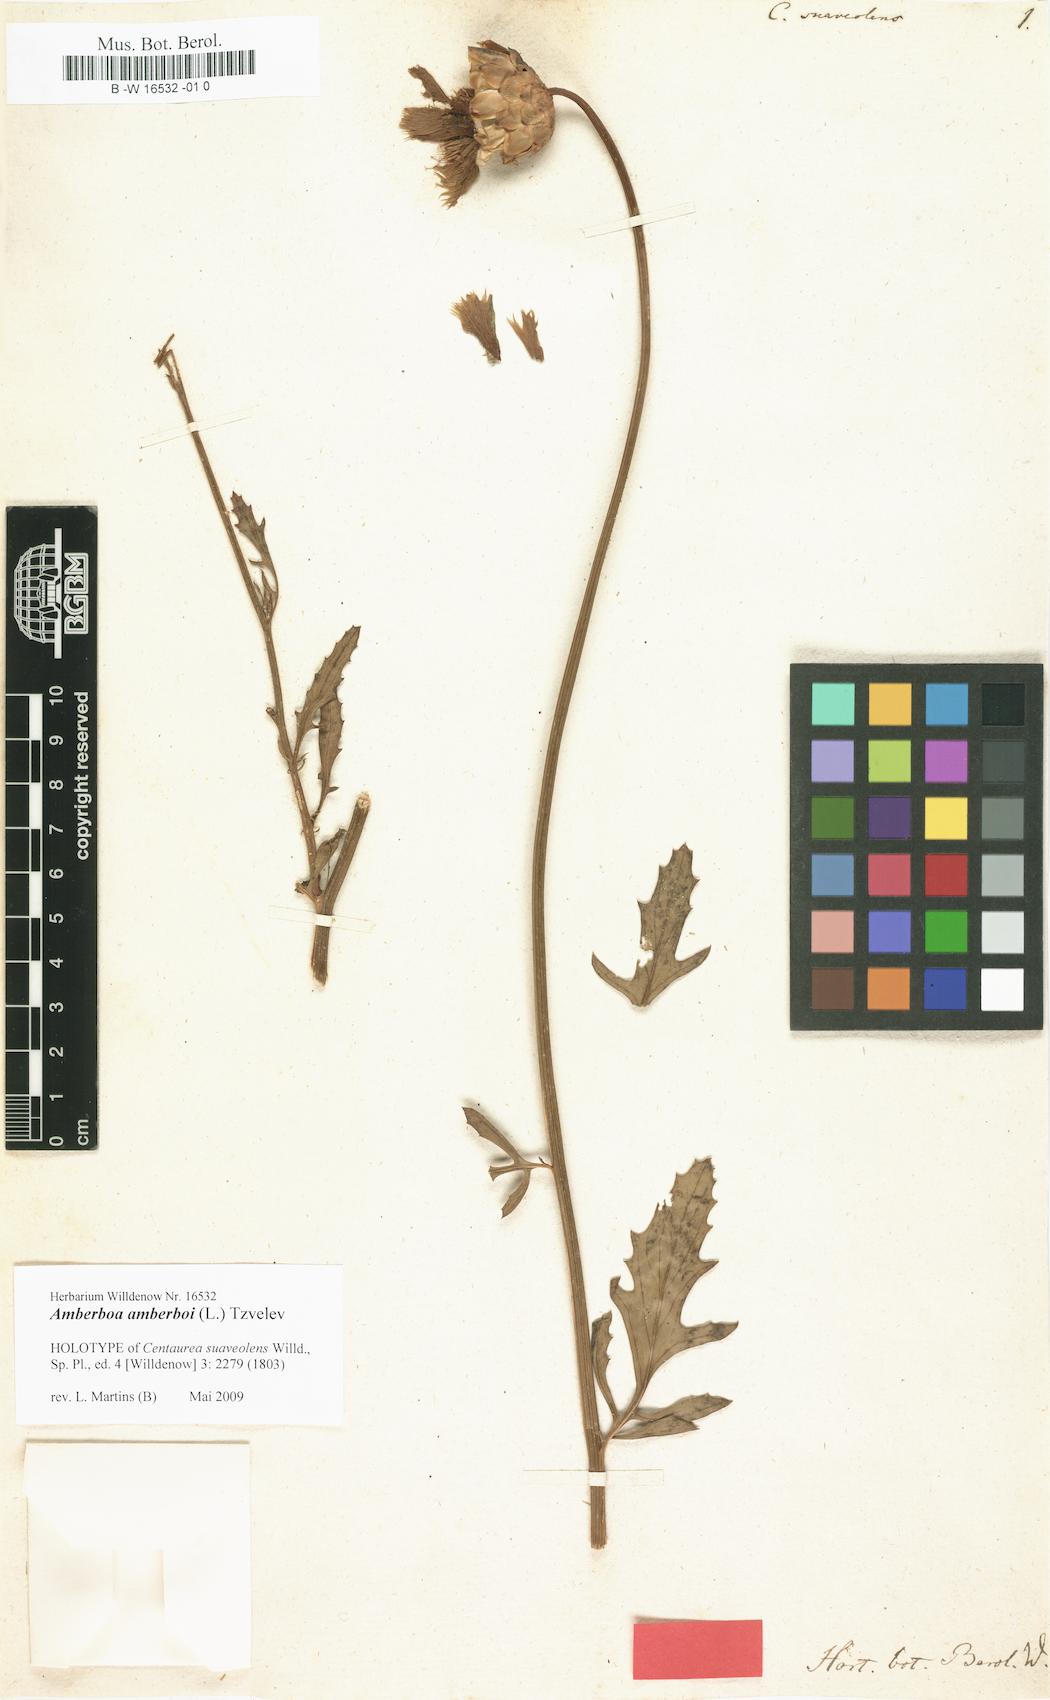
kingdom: Plantae
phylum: Tracheophyta
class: Magnoliopsida
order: Asterales
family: Asteraceae
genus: Amberboa
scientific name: Amberboa amberboi
